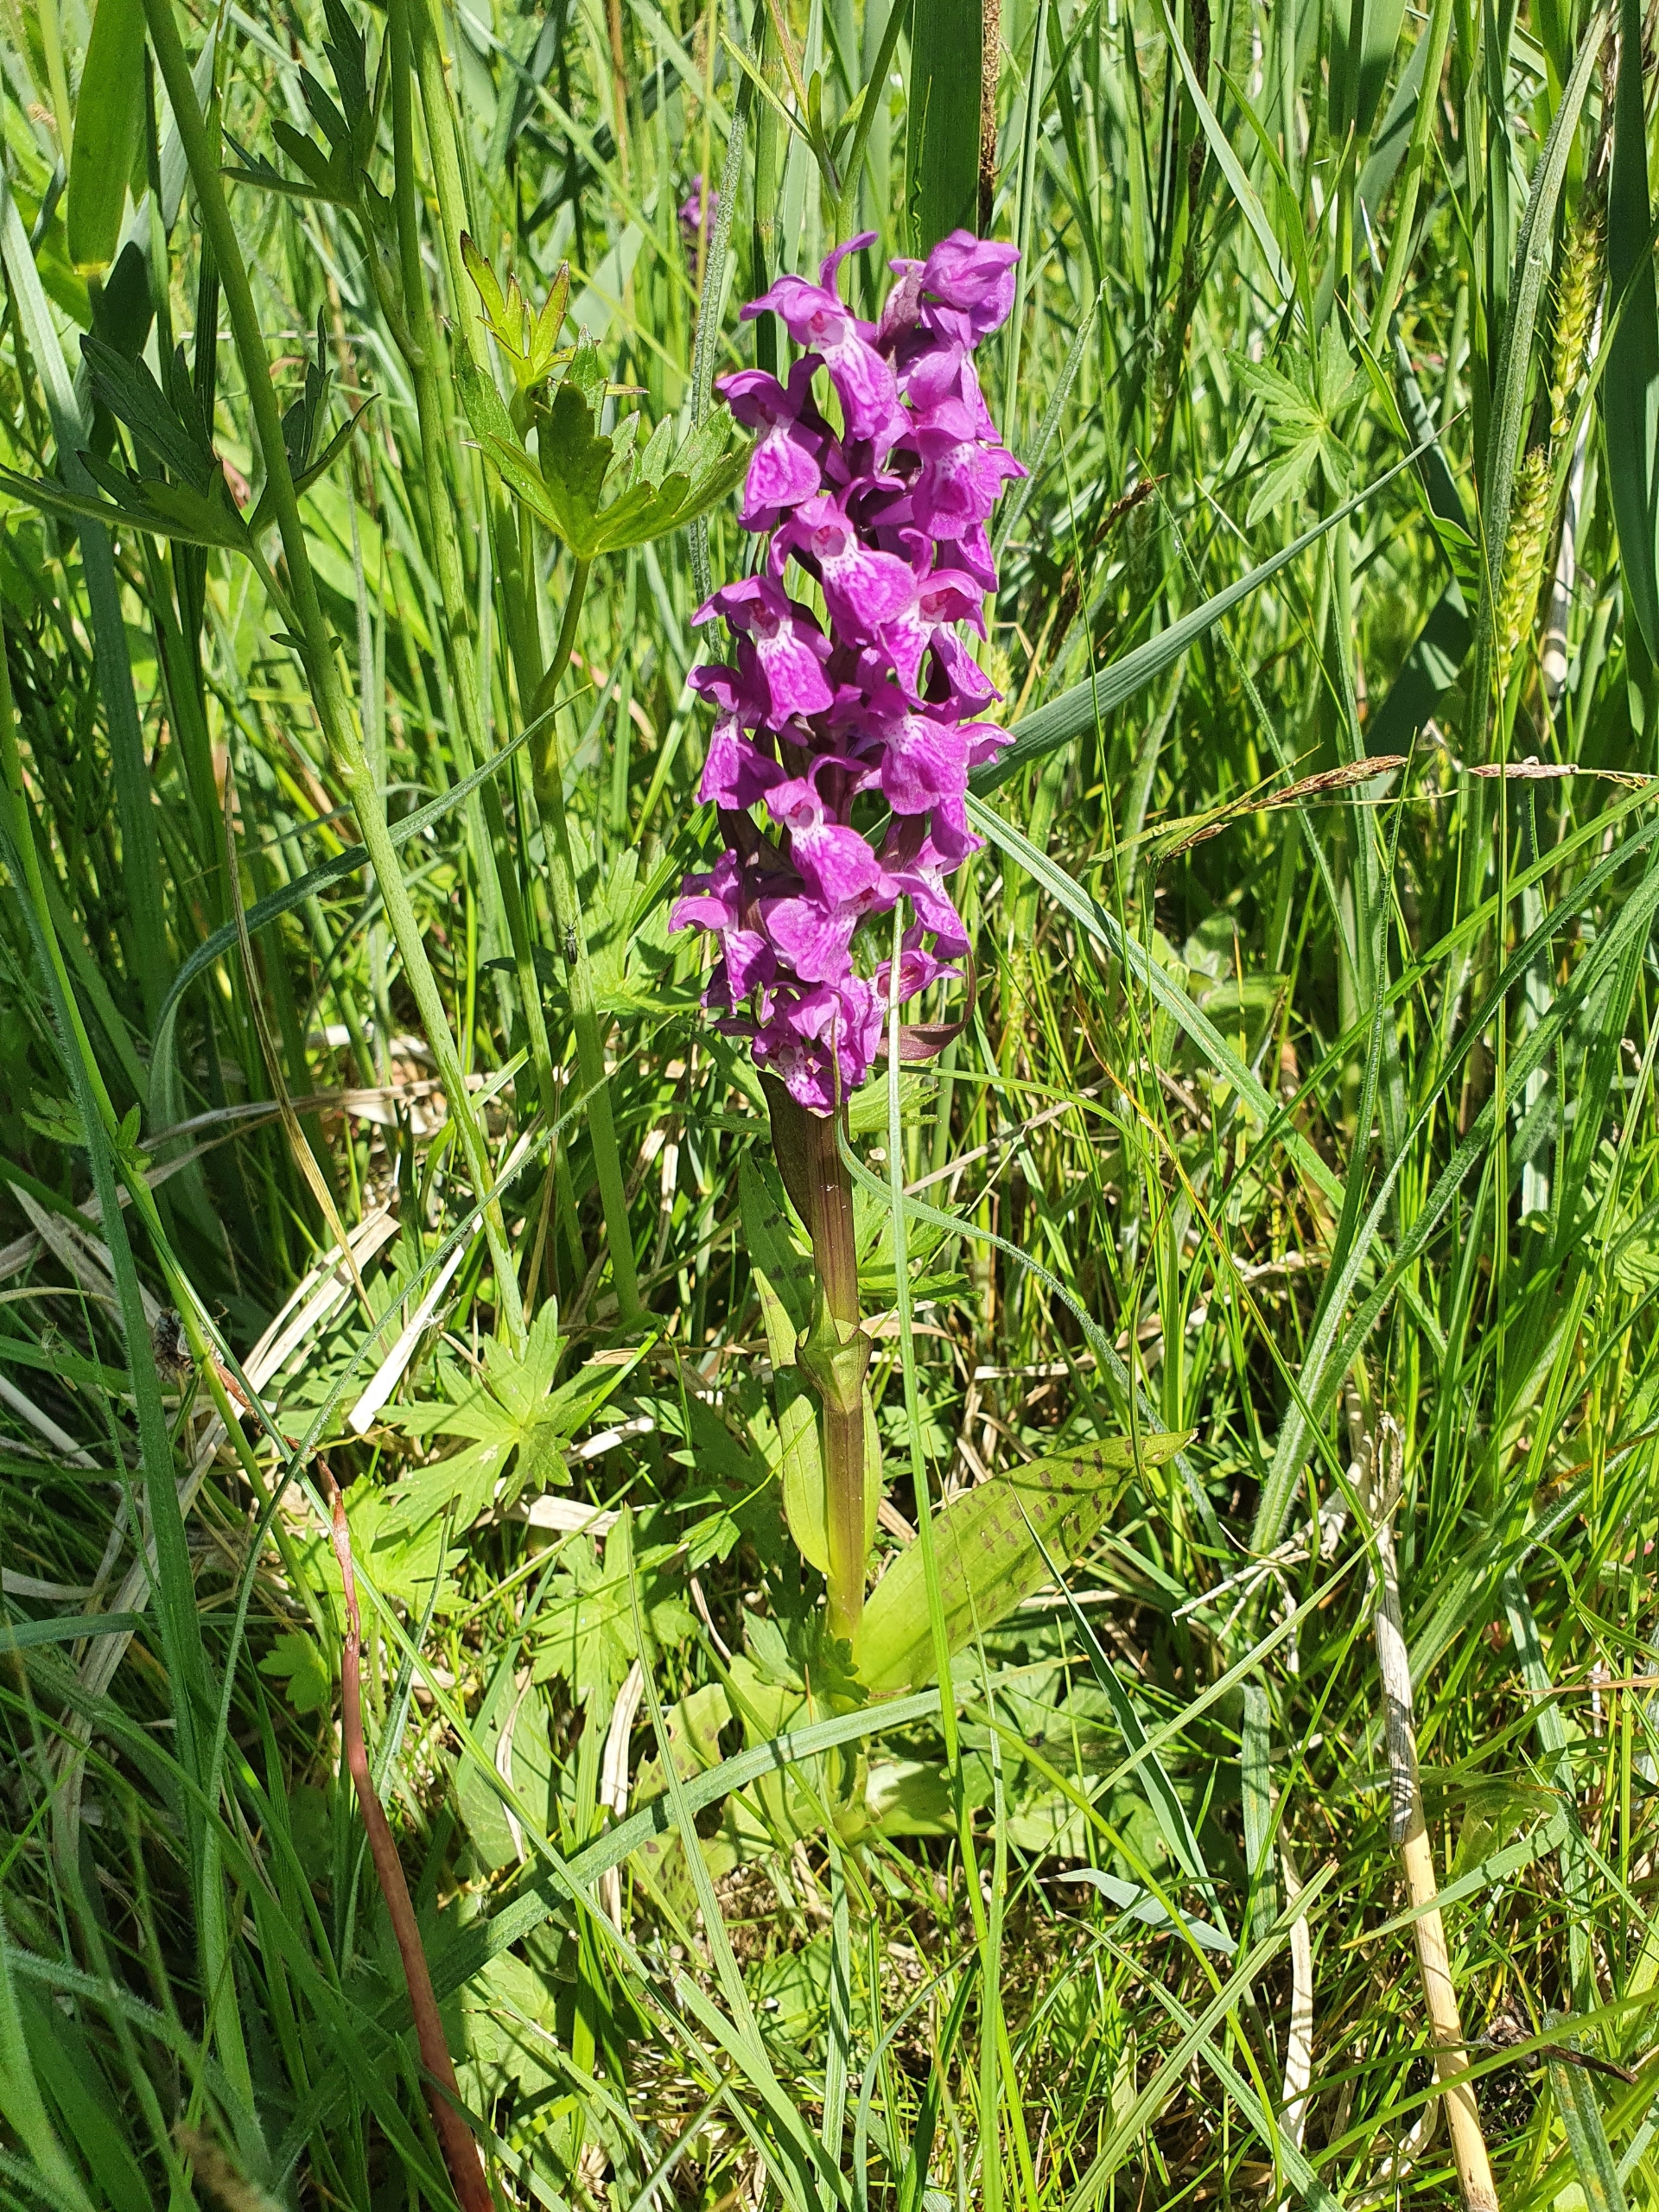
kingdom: Plantae
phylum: Tracheophyta
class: Liliopsida
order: Asparagales
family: Orchidaceae
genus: Dactylorhiza
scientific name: Dactylorhiza majalis
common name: Maj-gøgeurt
